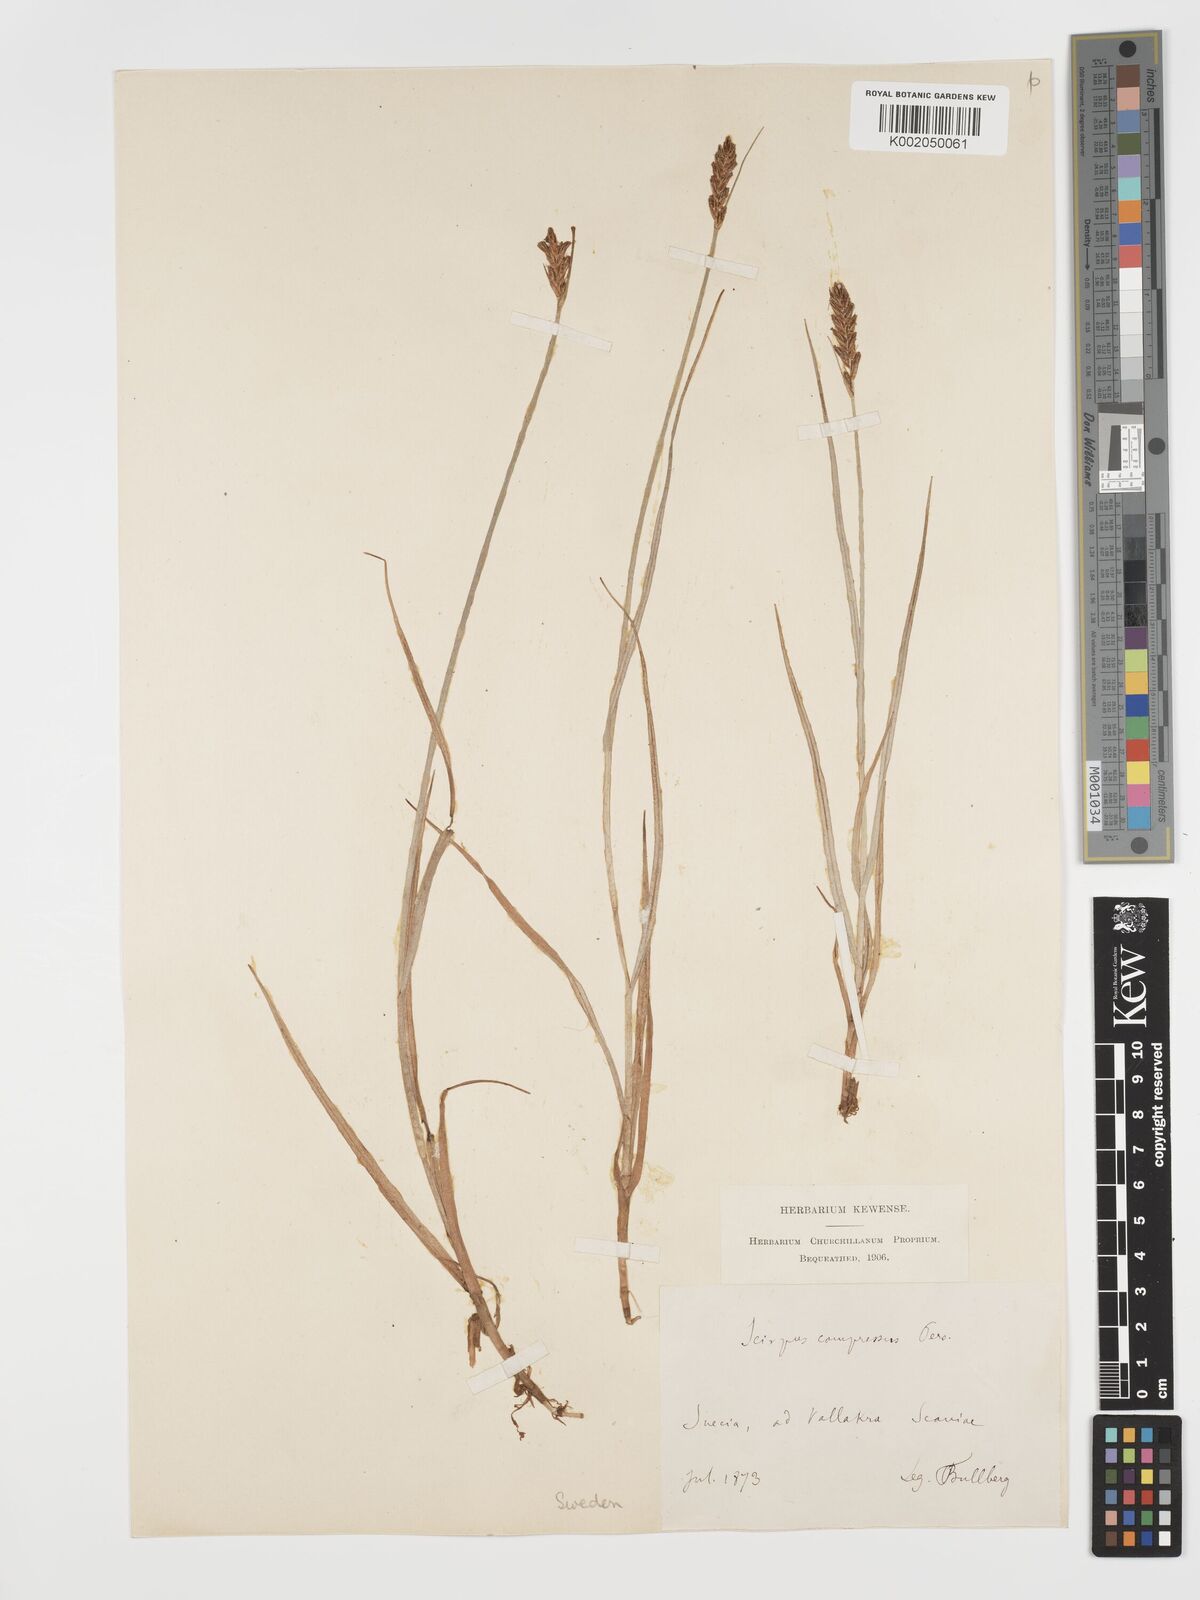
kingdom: Plantae
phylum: Tracheophyta
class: Liliopsida
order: Poales
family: Cyperaceae
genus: Blysmus
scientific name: Blysmus compressus
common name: Flat-sedge
